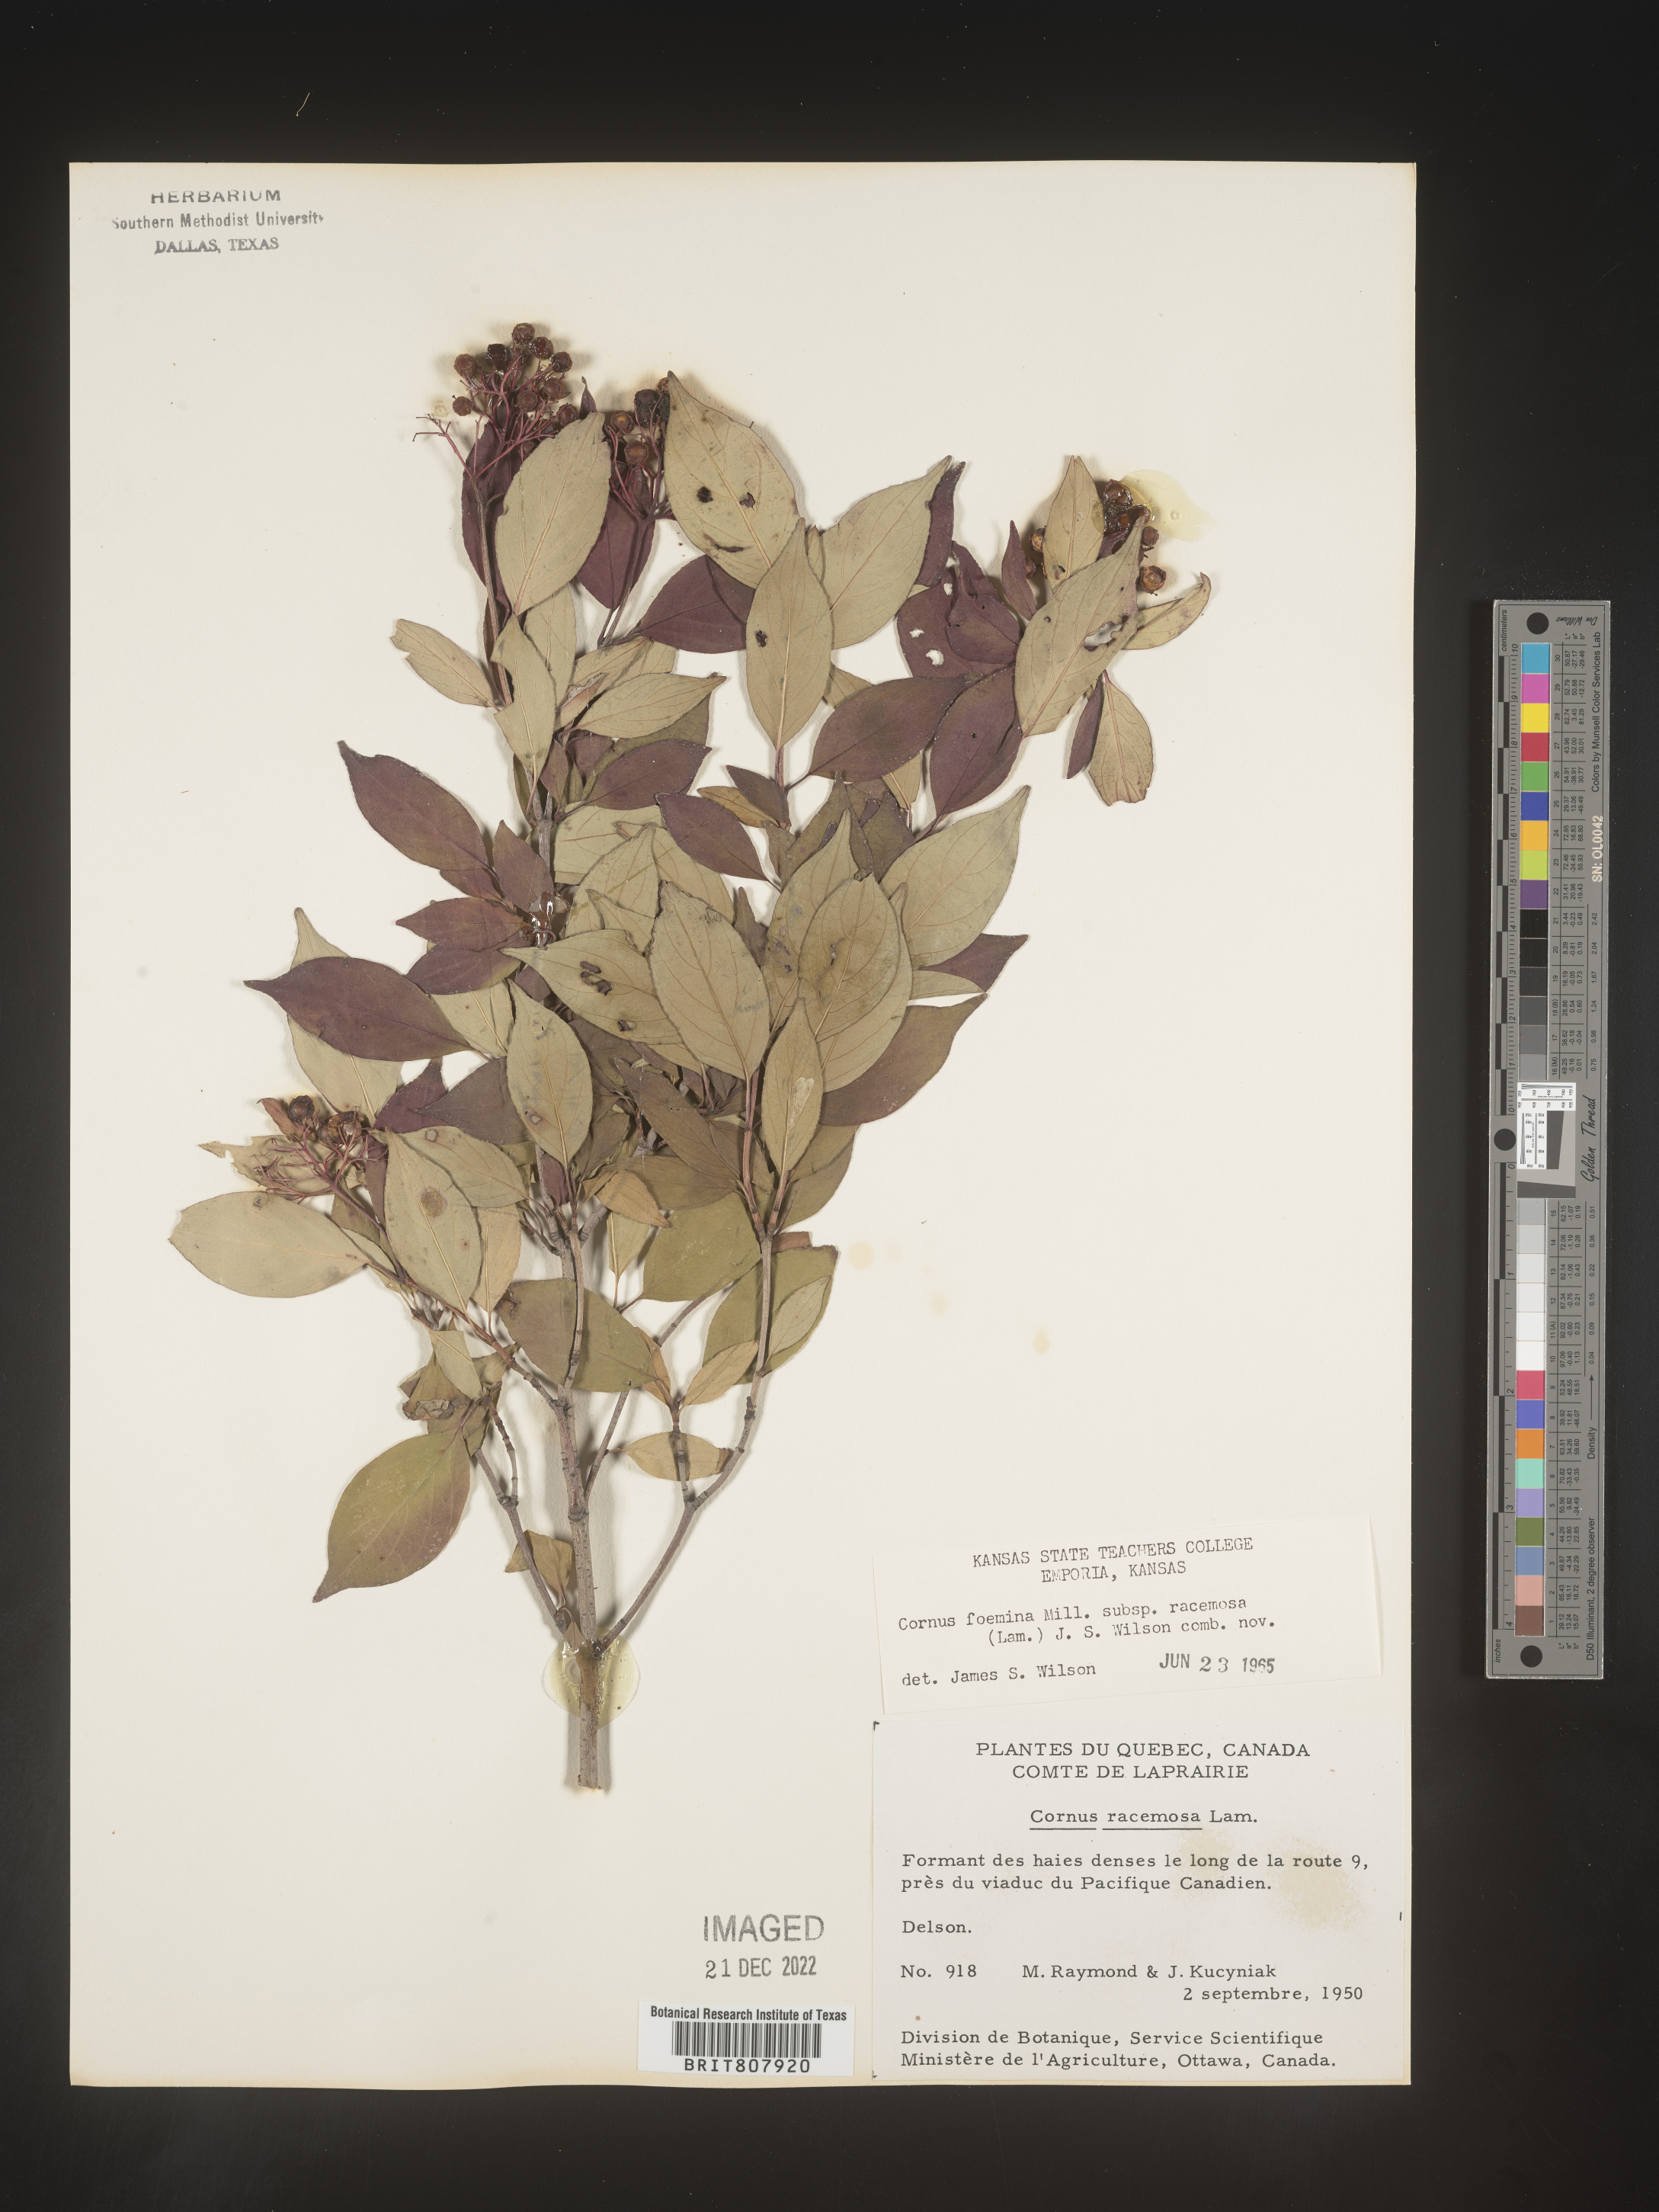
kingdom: Plantae
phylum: Tracheophyta
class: Magnoliopsida
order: Cornales
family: Cornaceae
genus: Cornus
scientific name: Cornus racemosa
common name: Panicled dogwood
